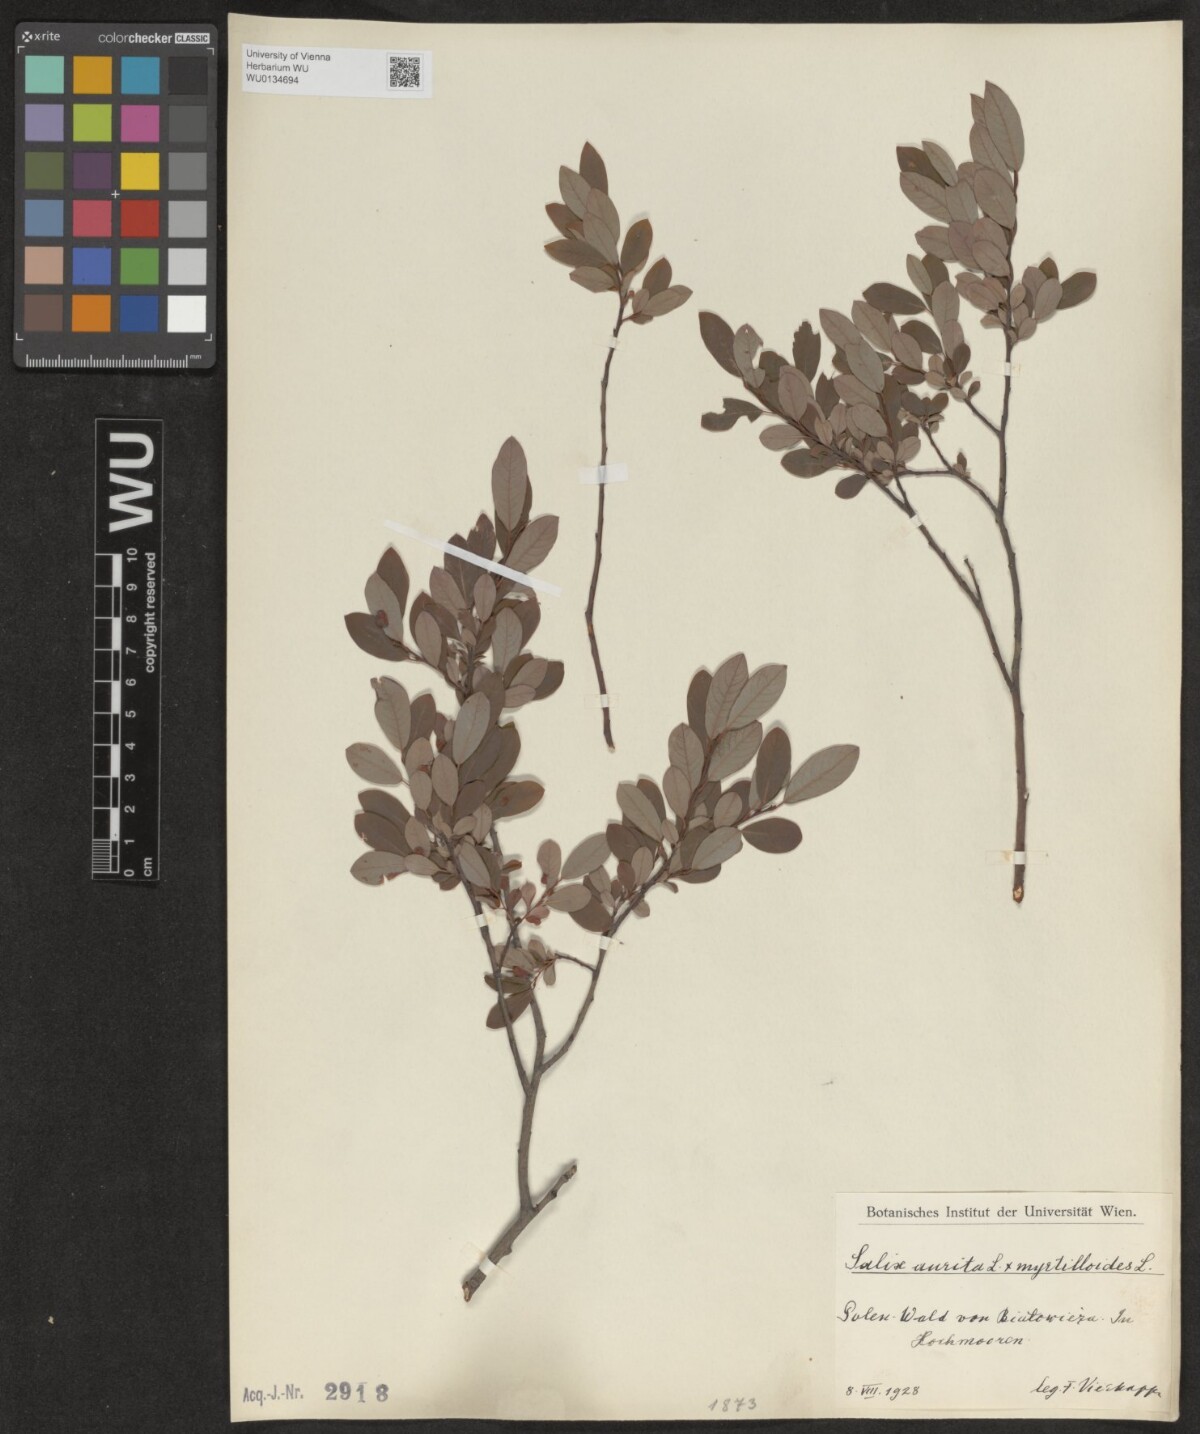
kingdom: Plantae
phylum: Tracheophyta
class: Magnoliopsida
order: Malpighiales
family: Salicaceae
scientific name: Salicaceae
